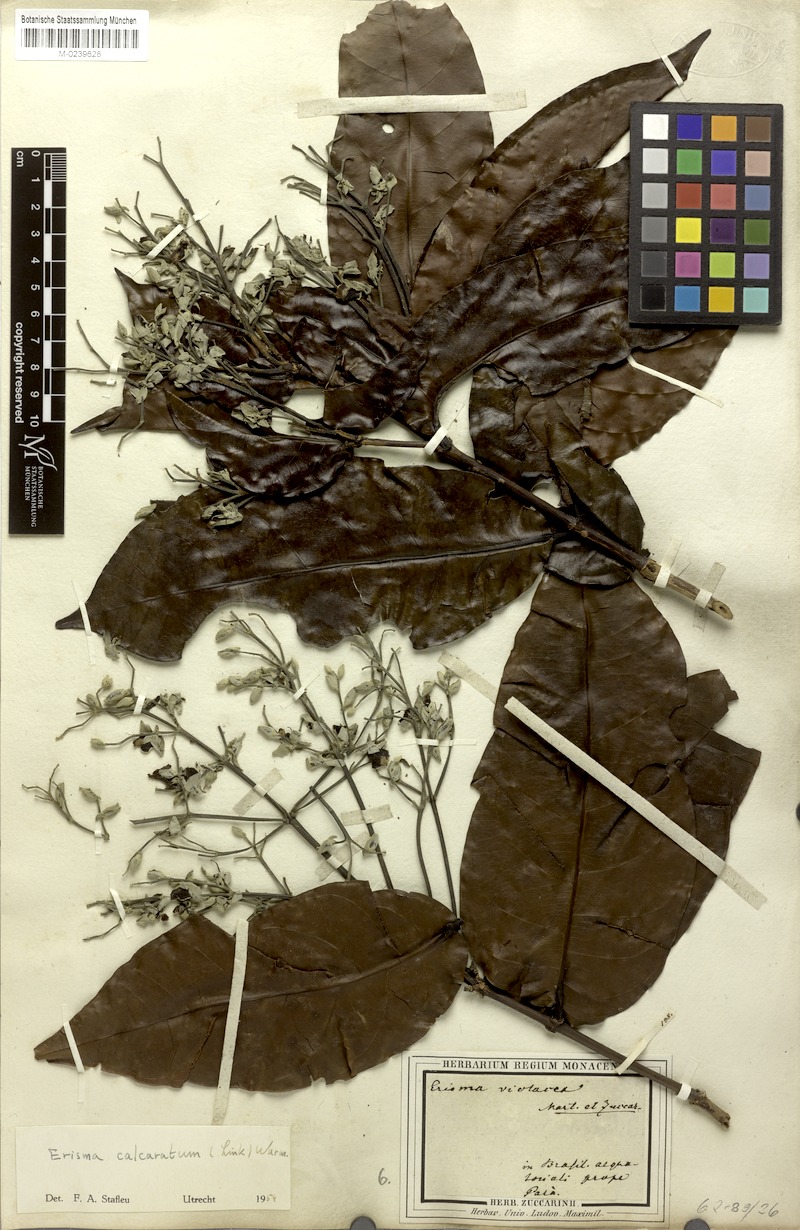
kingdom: Plantae
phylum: Tracheophyta
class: Magnoliopsida
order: Myrtales
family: Vochysiaceae
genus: Erisma
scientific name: Erisma calcaratum
